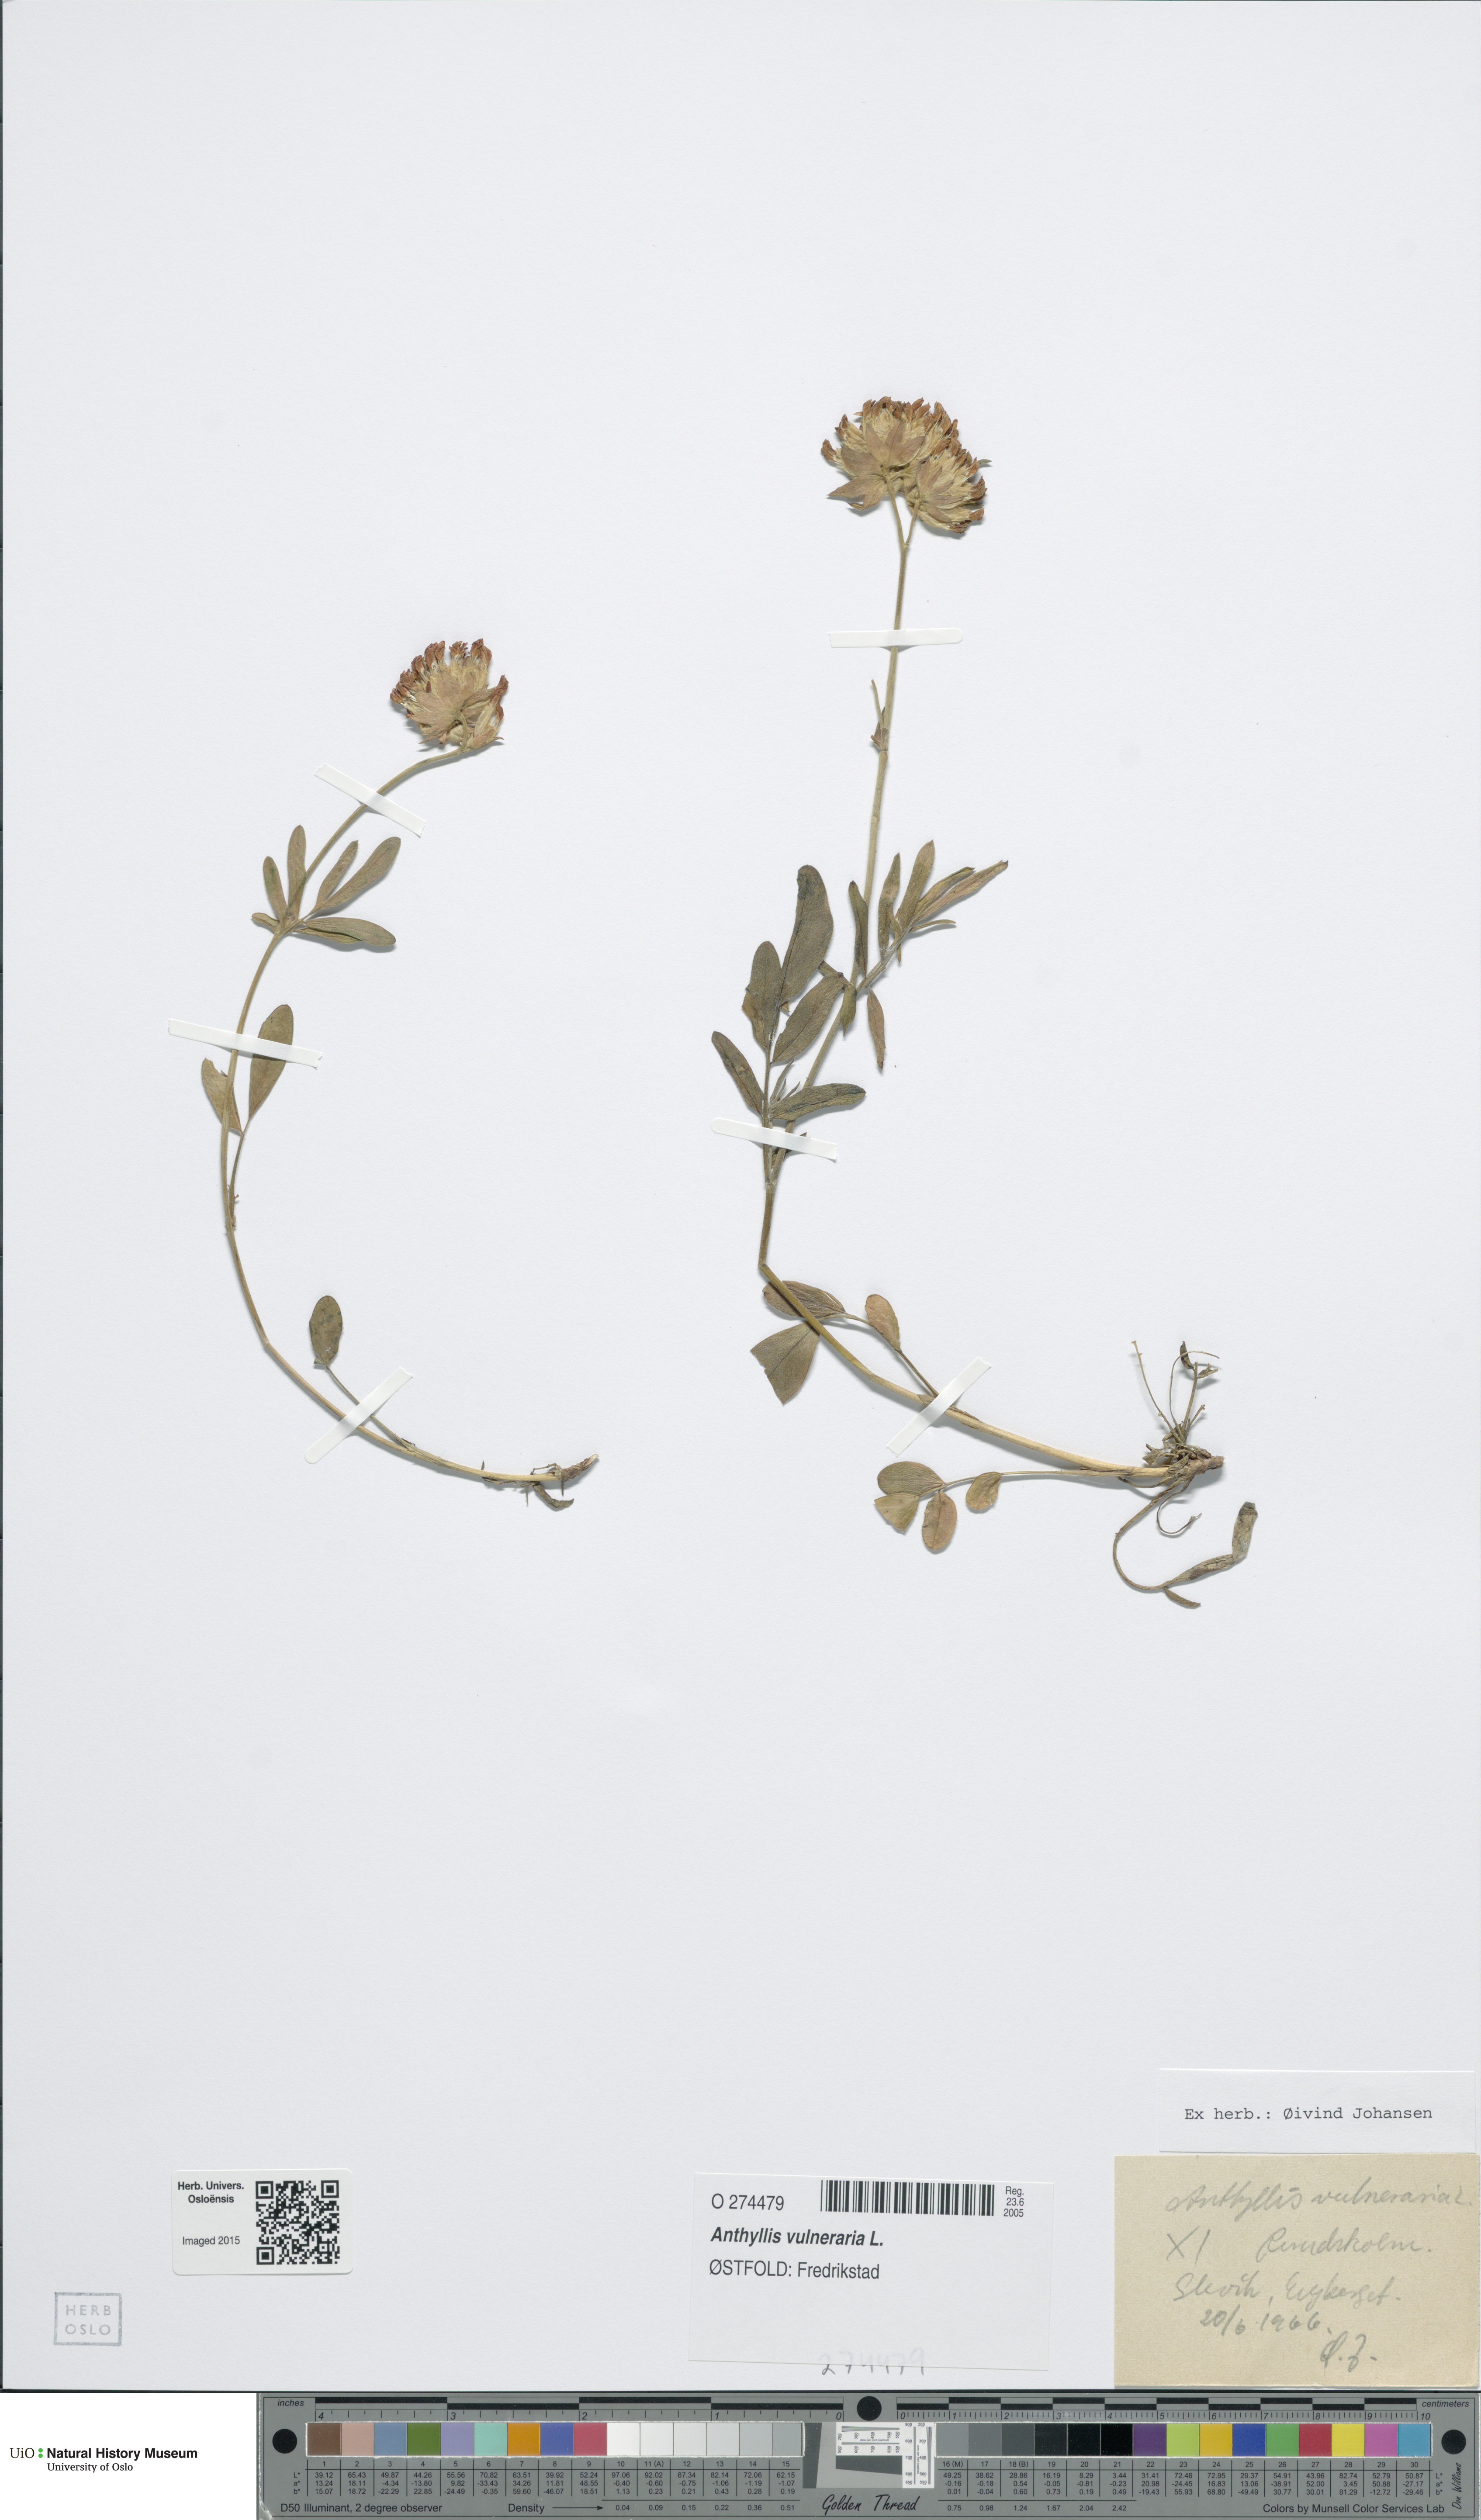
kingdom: Plantae
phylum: Tracheophyta
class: Magnoliopsida
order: Fabales
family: Fabaceae
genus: Anthyllis
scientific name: Anthyllis vulneraria
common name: Kidney vetch
